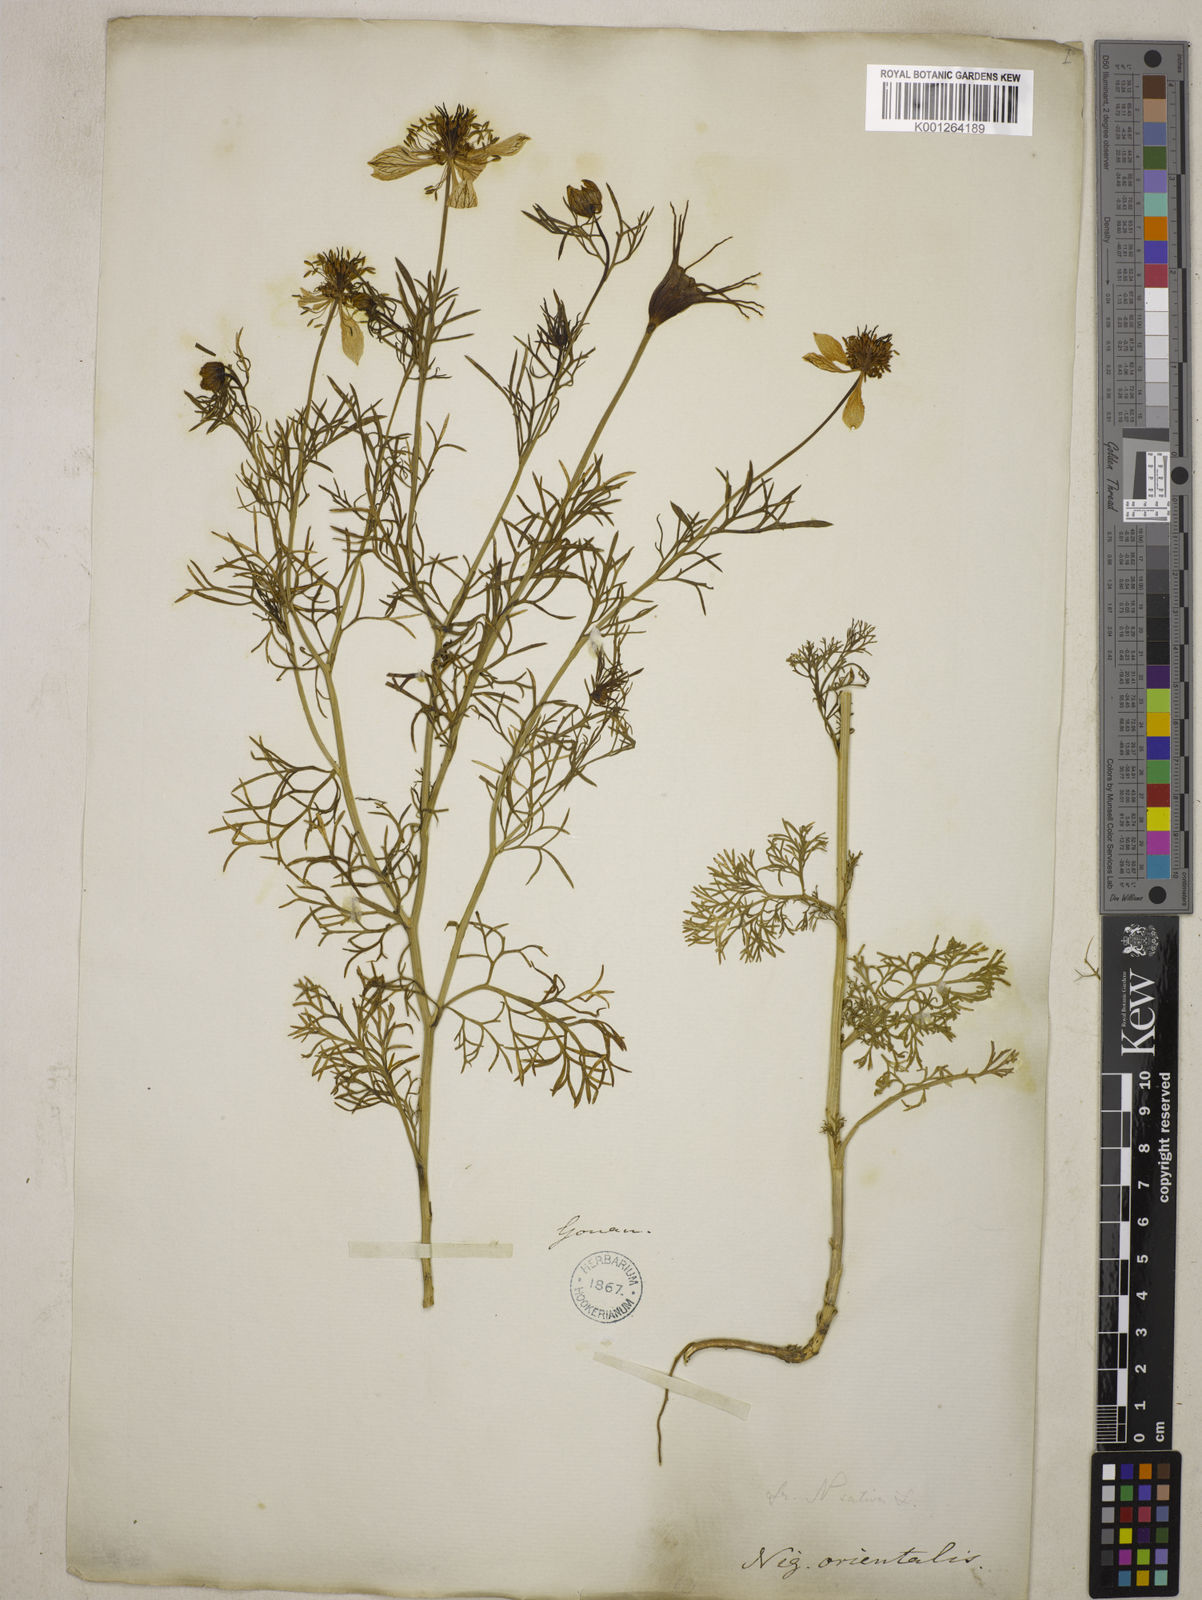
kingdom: Plantae
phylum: Tracheophyta
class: Magnoliopsida
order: Ranunculales
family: Ranunculaceae
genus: Nigella
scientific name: Nigella orientalis
